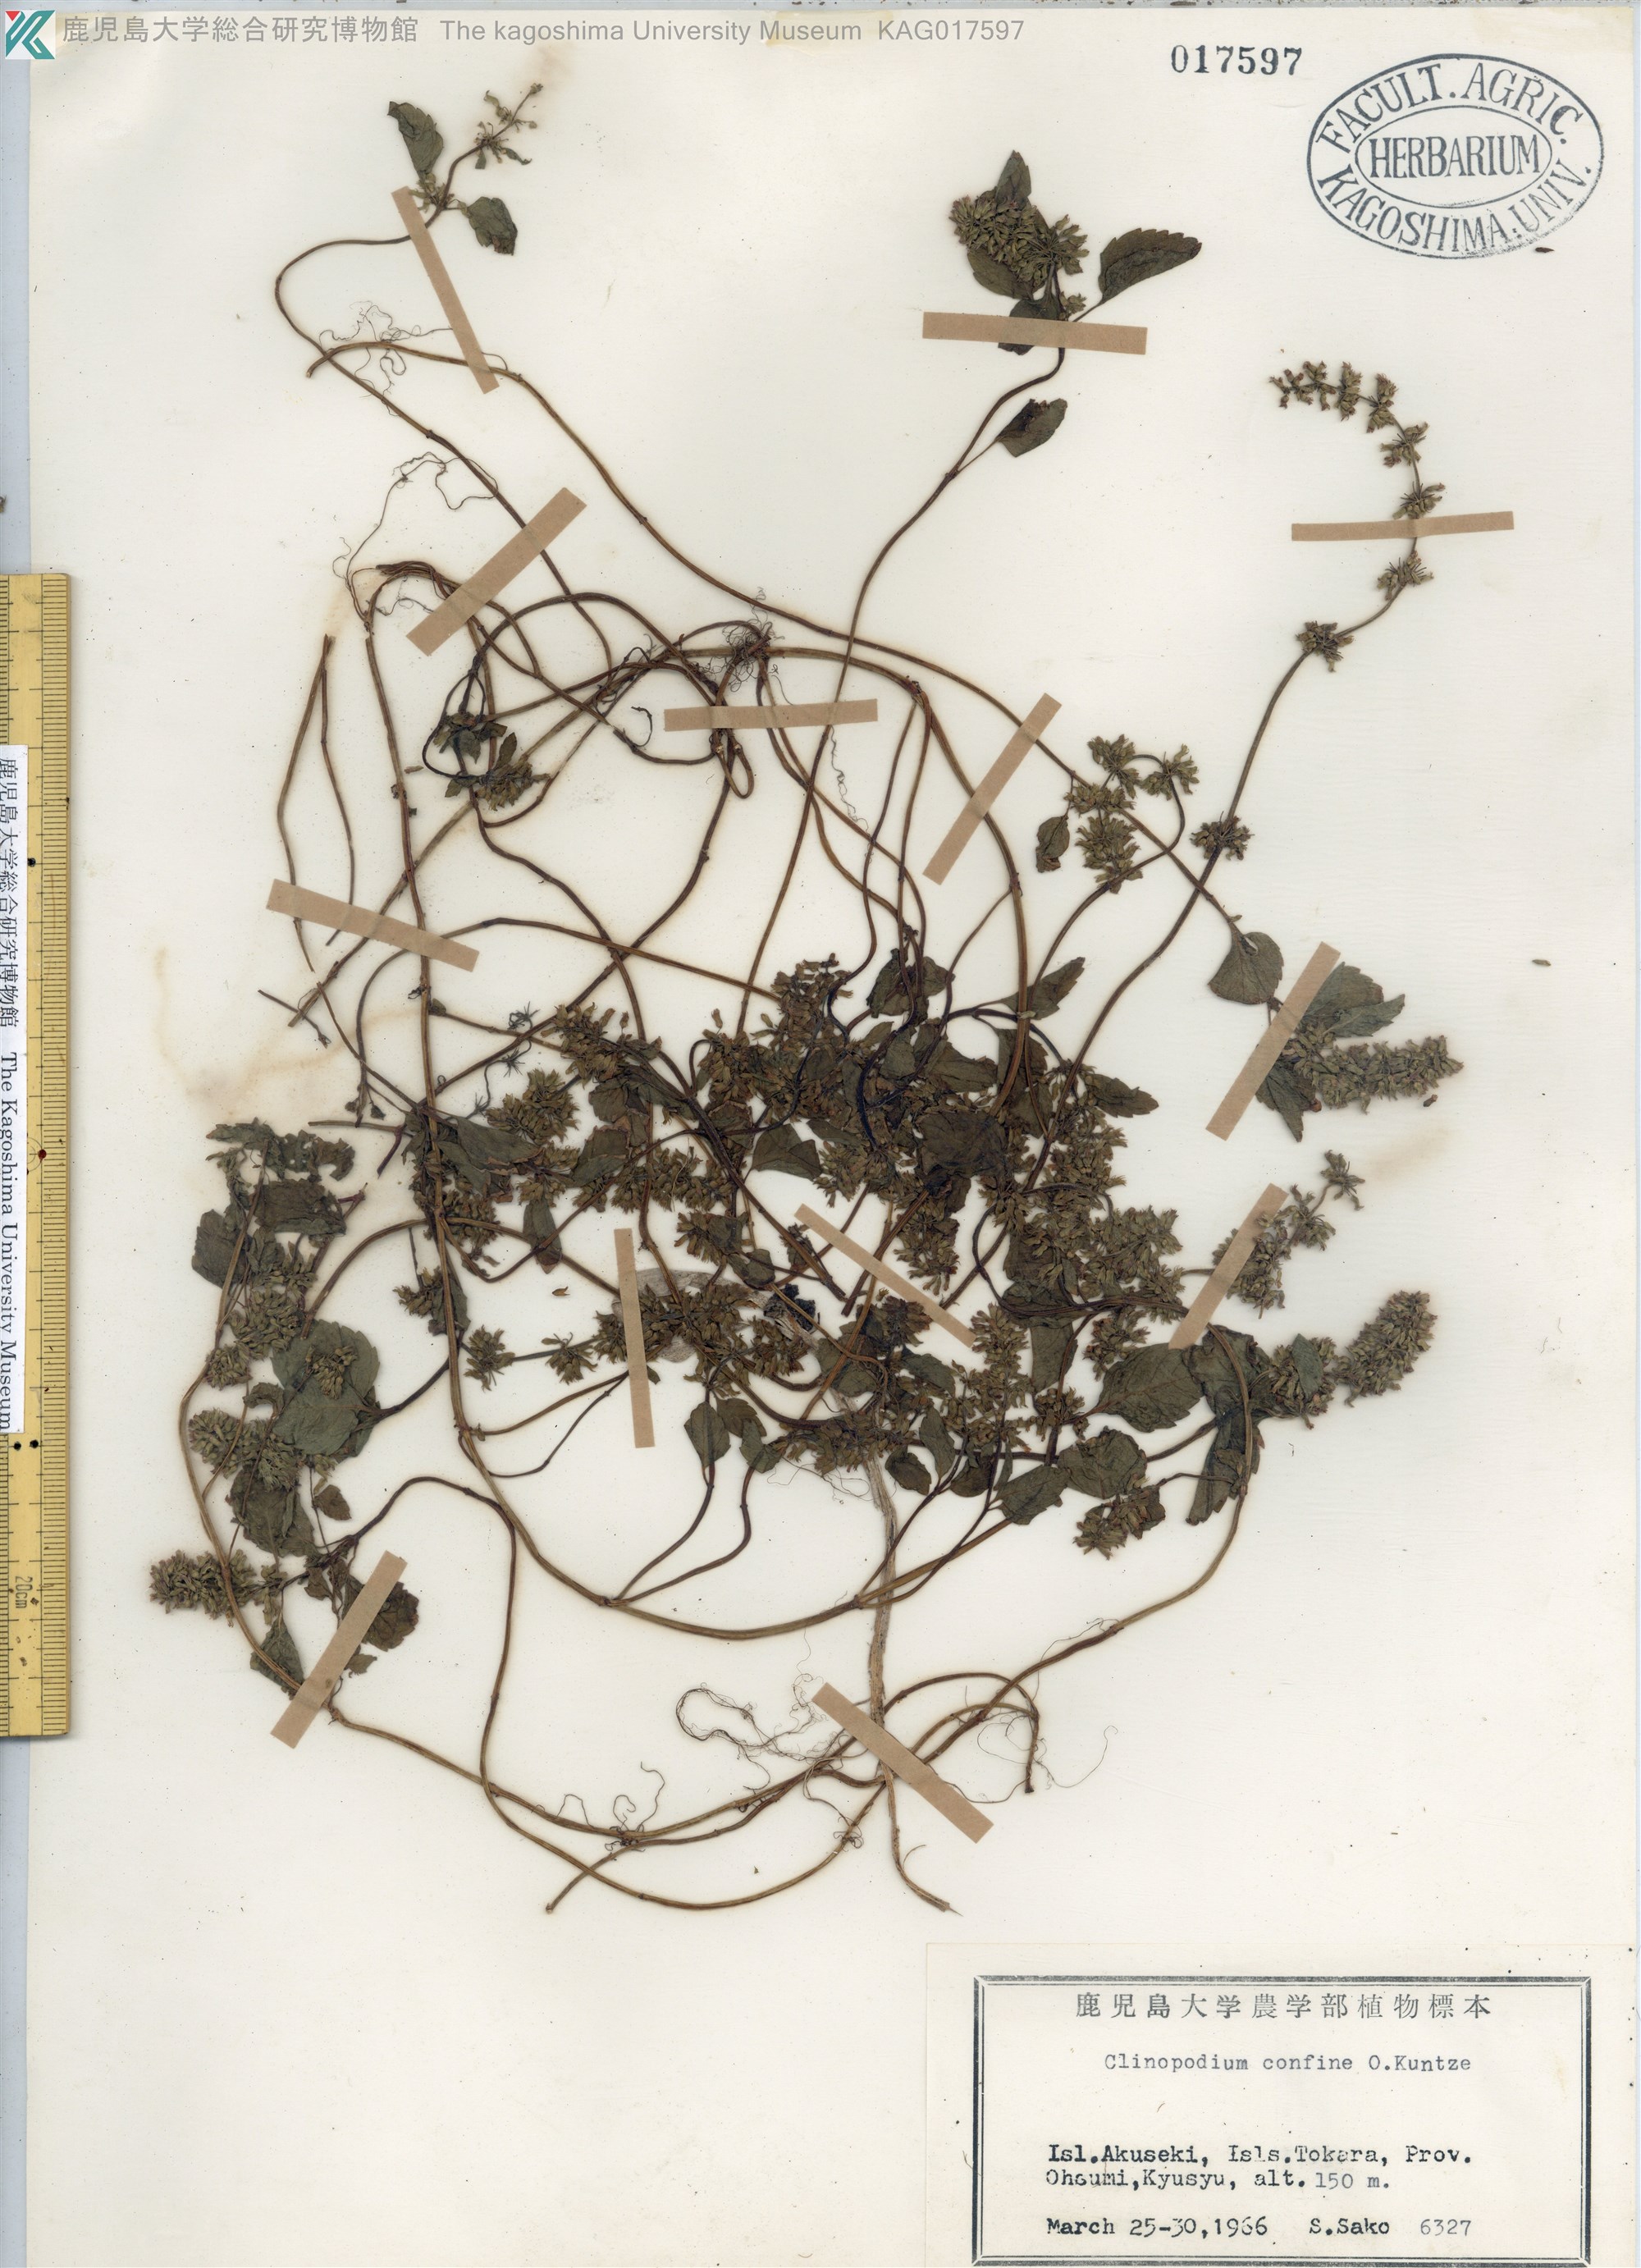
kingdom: Plantae
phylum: Tracheophyta
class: Magnoliopsida
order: Lamiales
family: Lamiaceae
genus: Clinopodium
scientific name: Clinopodium gracile
